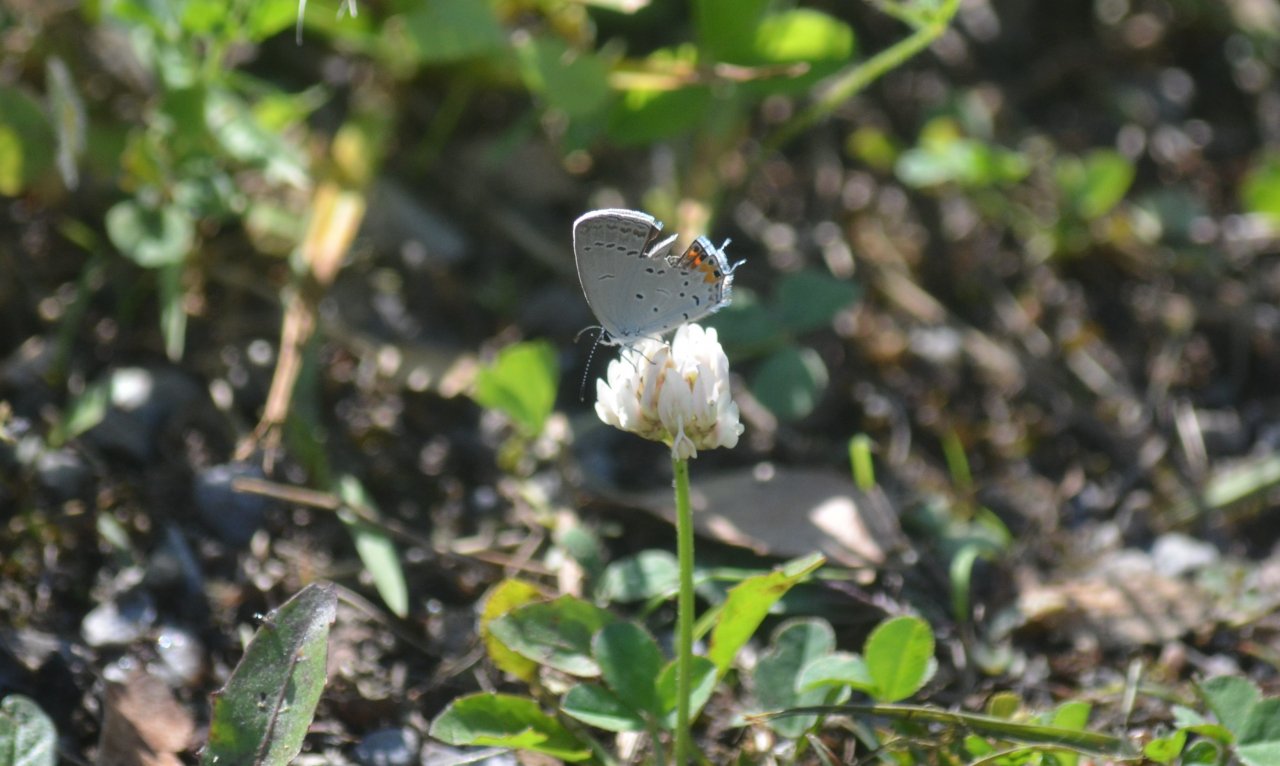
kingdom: Animalia
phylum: Arthropoda
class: Insecta
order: Lepidoptera
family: Lycaenidae
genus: Elkalyce
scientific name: Elkalyce comyntas
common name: Eastern Tailed-Blue
